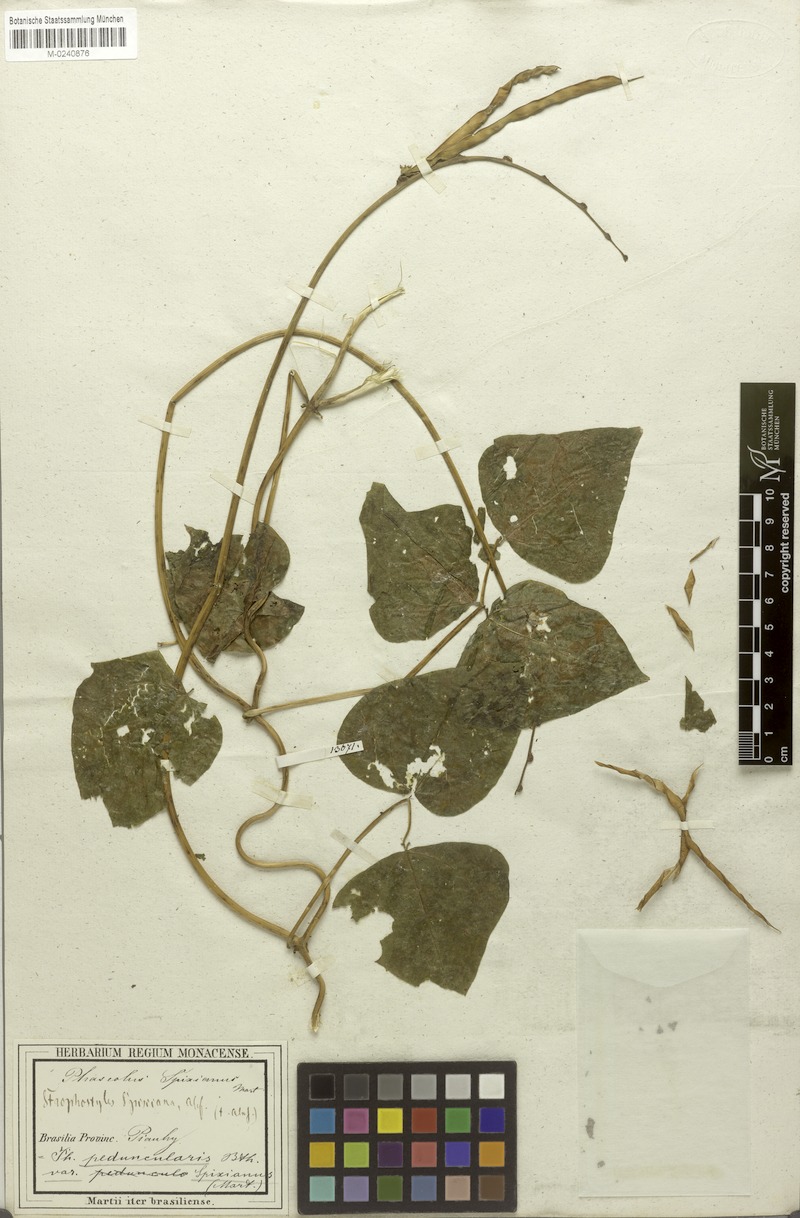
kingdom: Plantae
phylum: Tracheophyta
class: Magnoliopsida
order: Fabales
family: Fabaceae
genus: Ancistrotropis
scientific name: Ancistrotropis peduncularis
